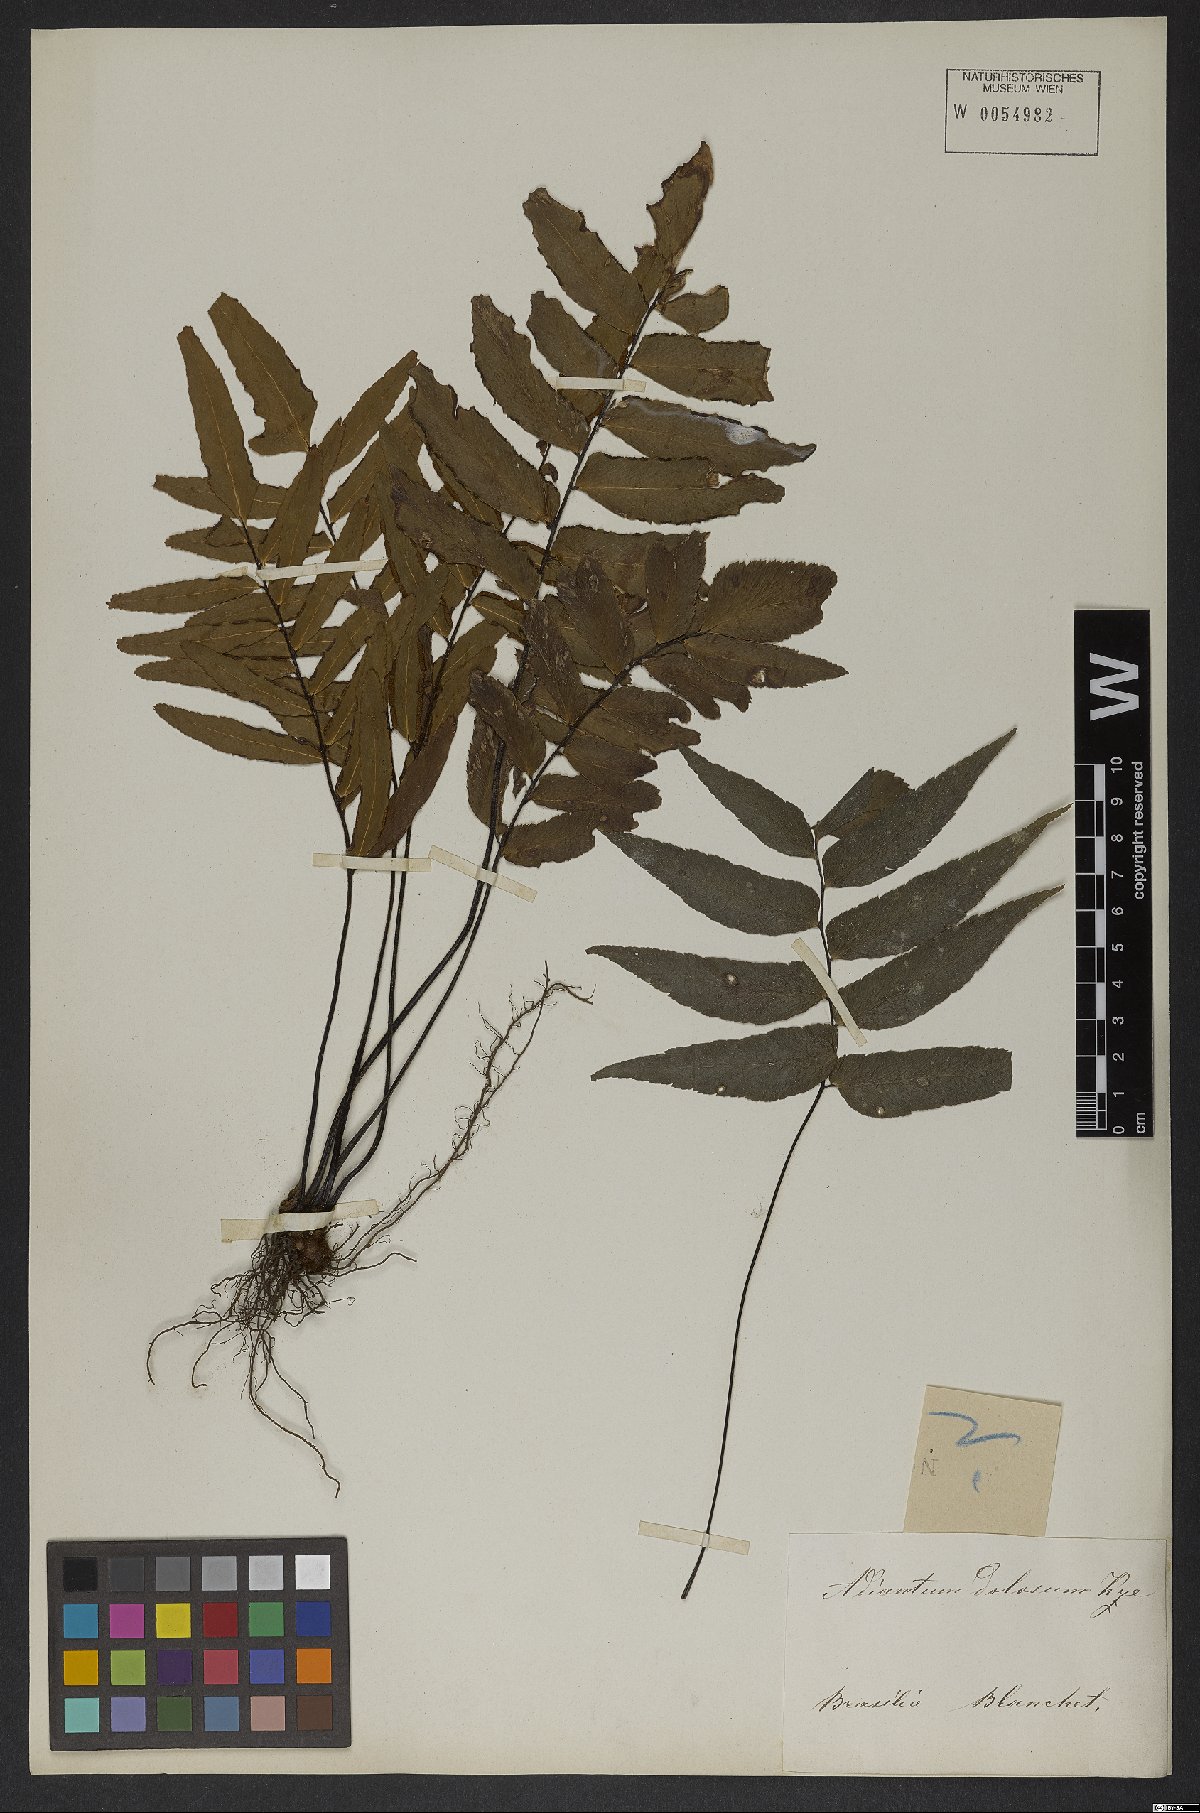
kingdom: Plantae
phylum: Tracheophyta
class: Polypodiopsida
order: Polypodiales
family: Pteridaceae
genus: Adiantum
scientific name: Adiantum dolosum
